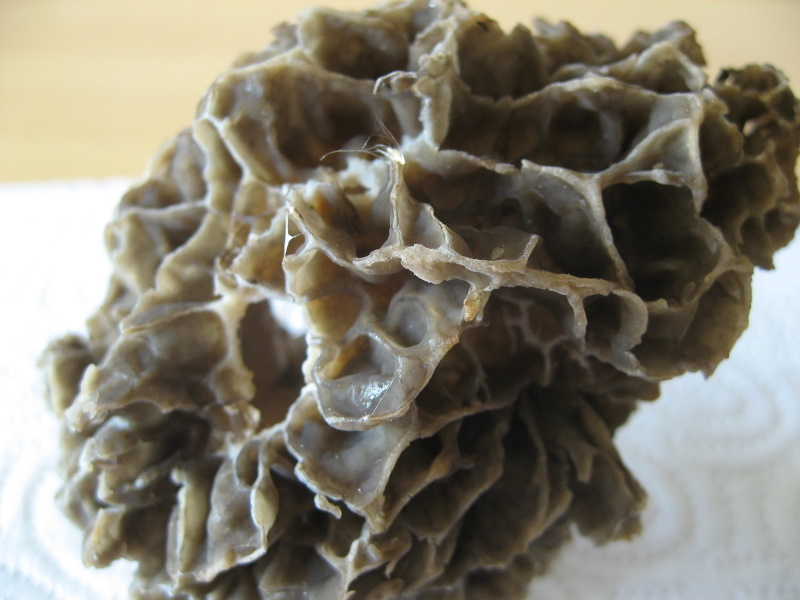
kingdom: Fungi
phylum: Ascomycota
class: Pezizomycetes
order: Pezizales
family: Morchellaceae
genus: Morchella
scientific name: Morchella esculenta
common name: spiselig morkel
